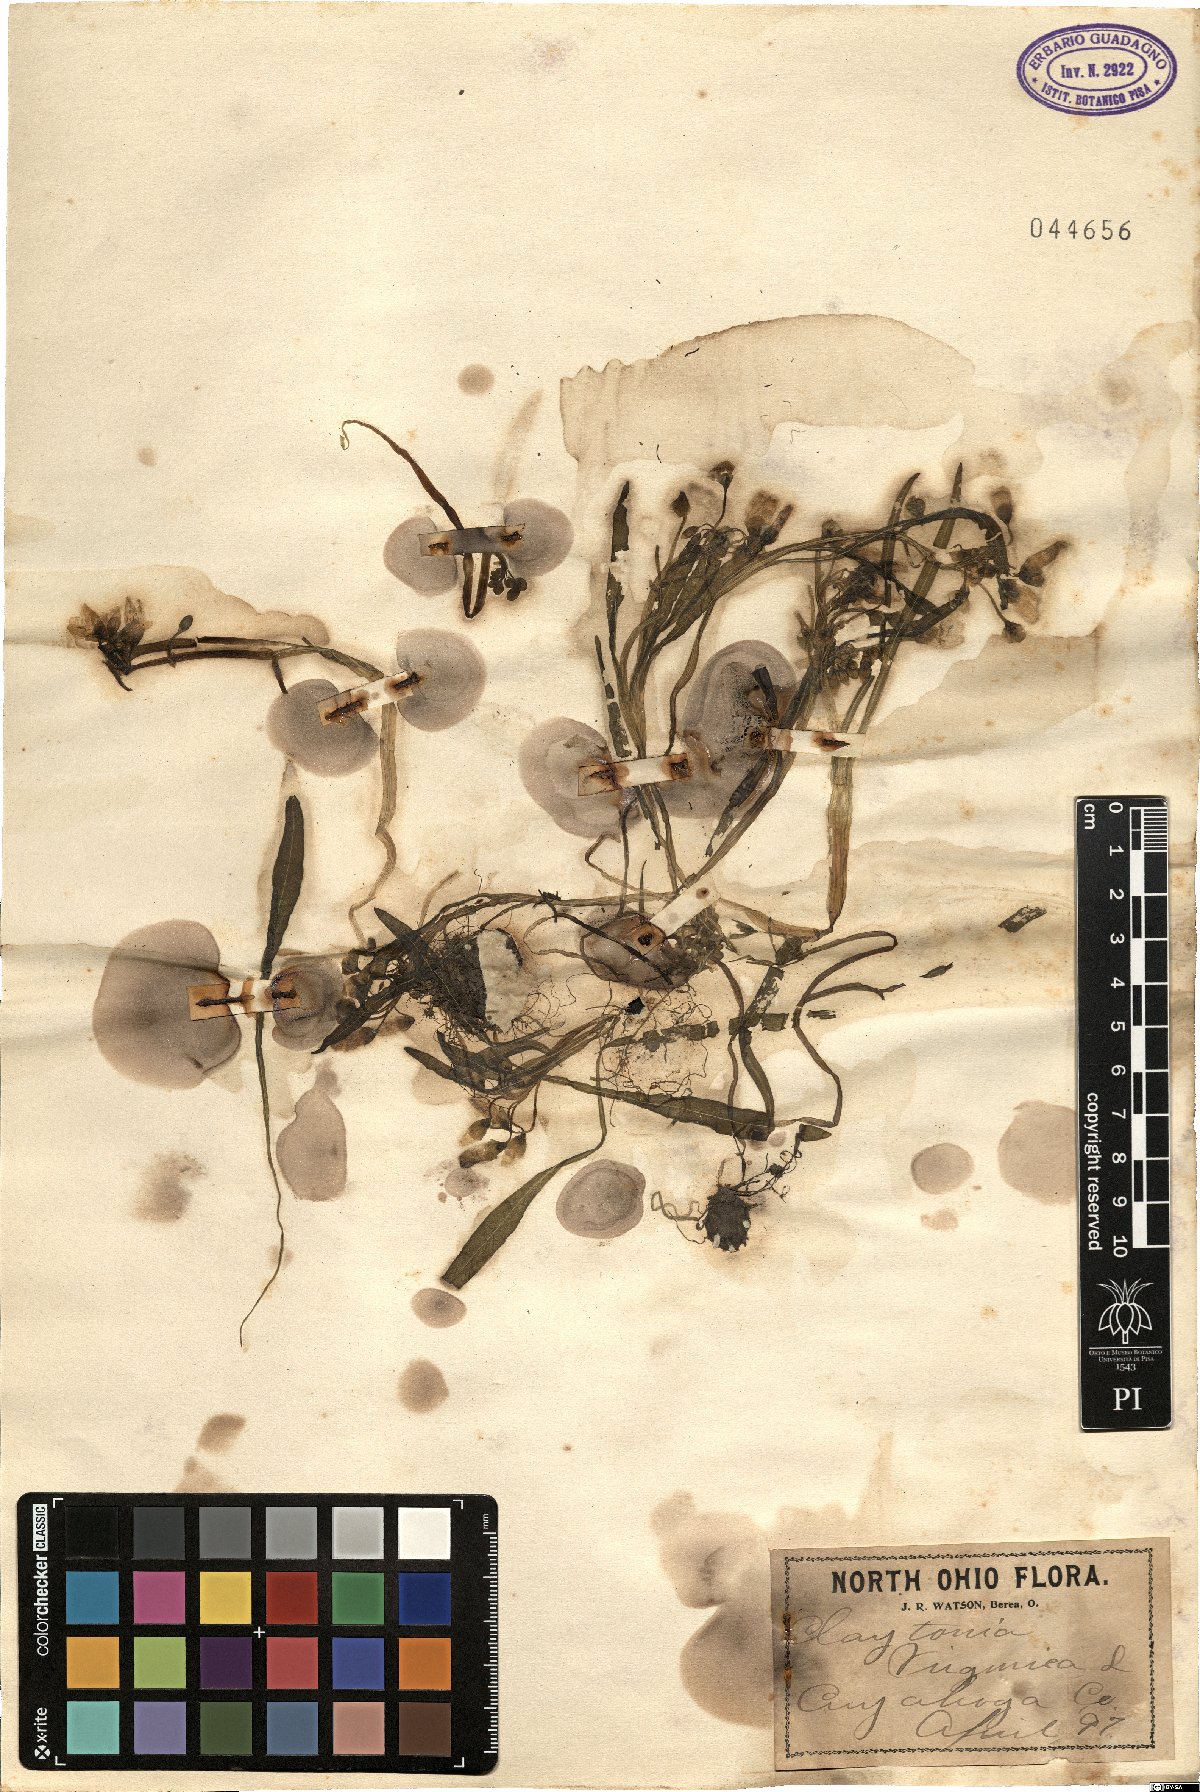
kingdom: Plantae
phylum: Tracheophyta
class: Magnoliopsida
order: Caryophyllales
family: Montiaceae
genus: Claytonia
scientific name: Claytonia virginica
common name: Virginia springbeauty
